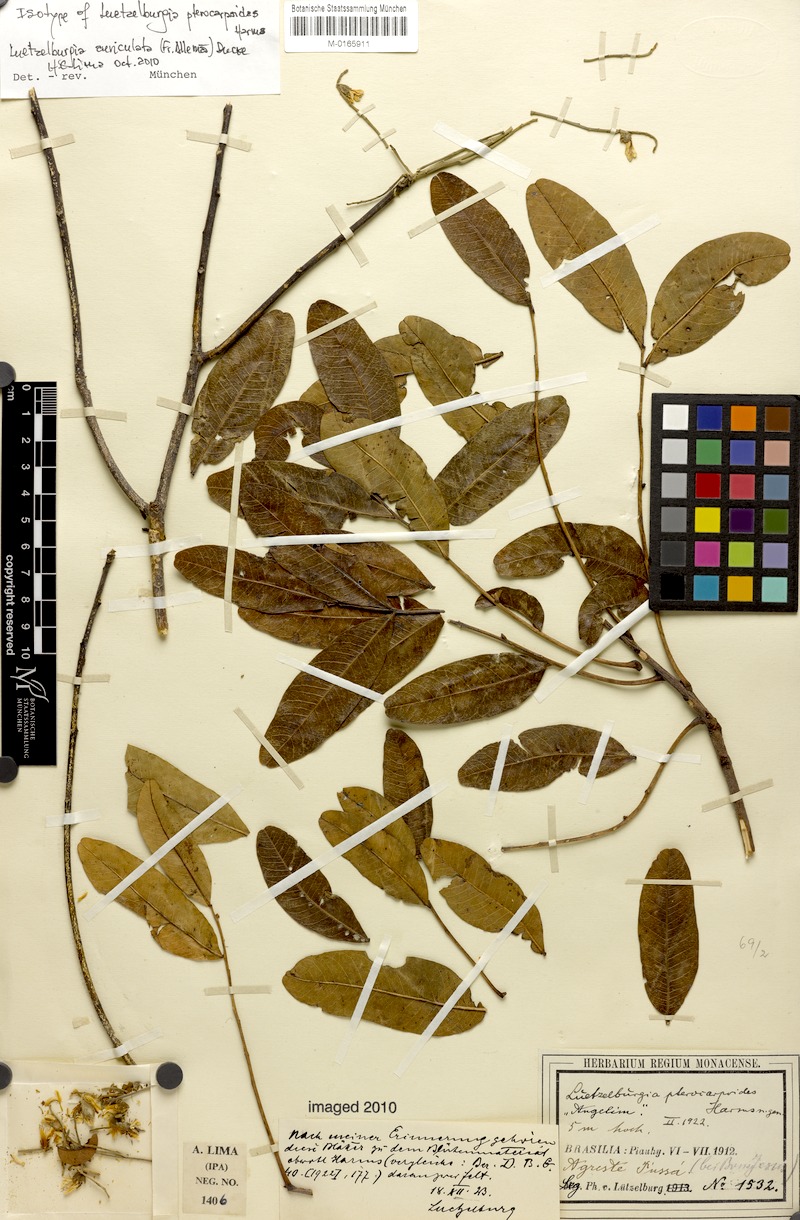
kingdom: Plantae
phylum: Tracheophyta
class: Magnoliopsida
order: Fabales
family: Fabaceae
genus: Luetzelburgia
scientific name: Luetzelburgia auriculata
